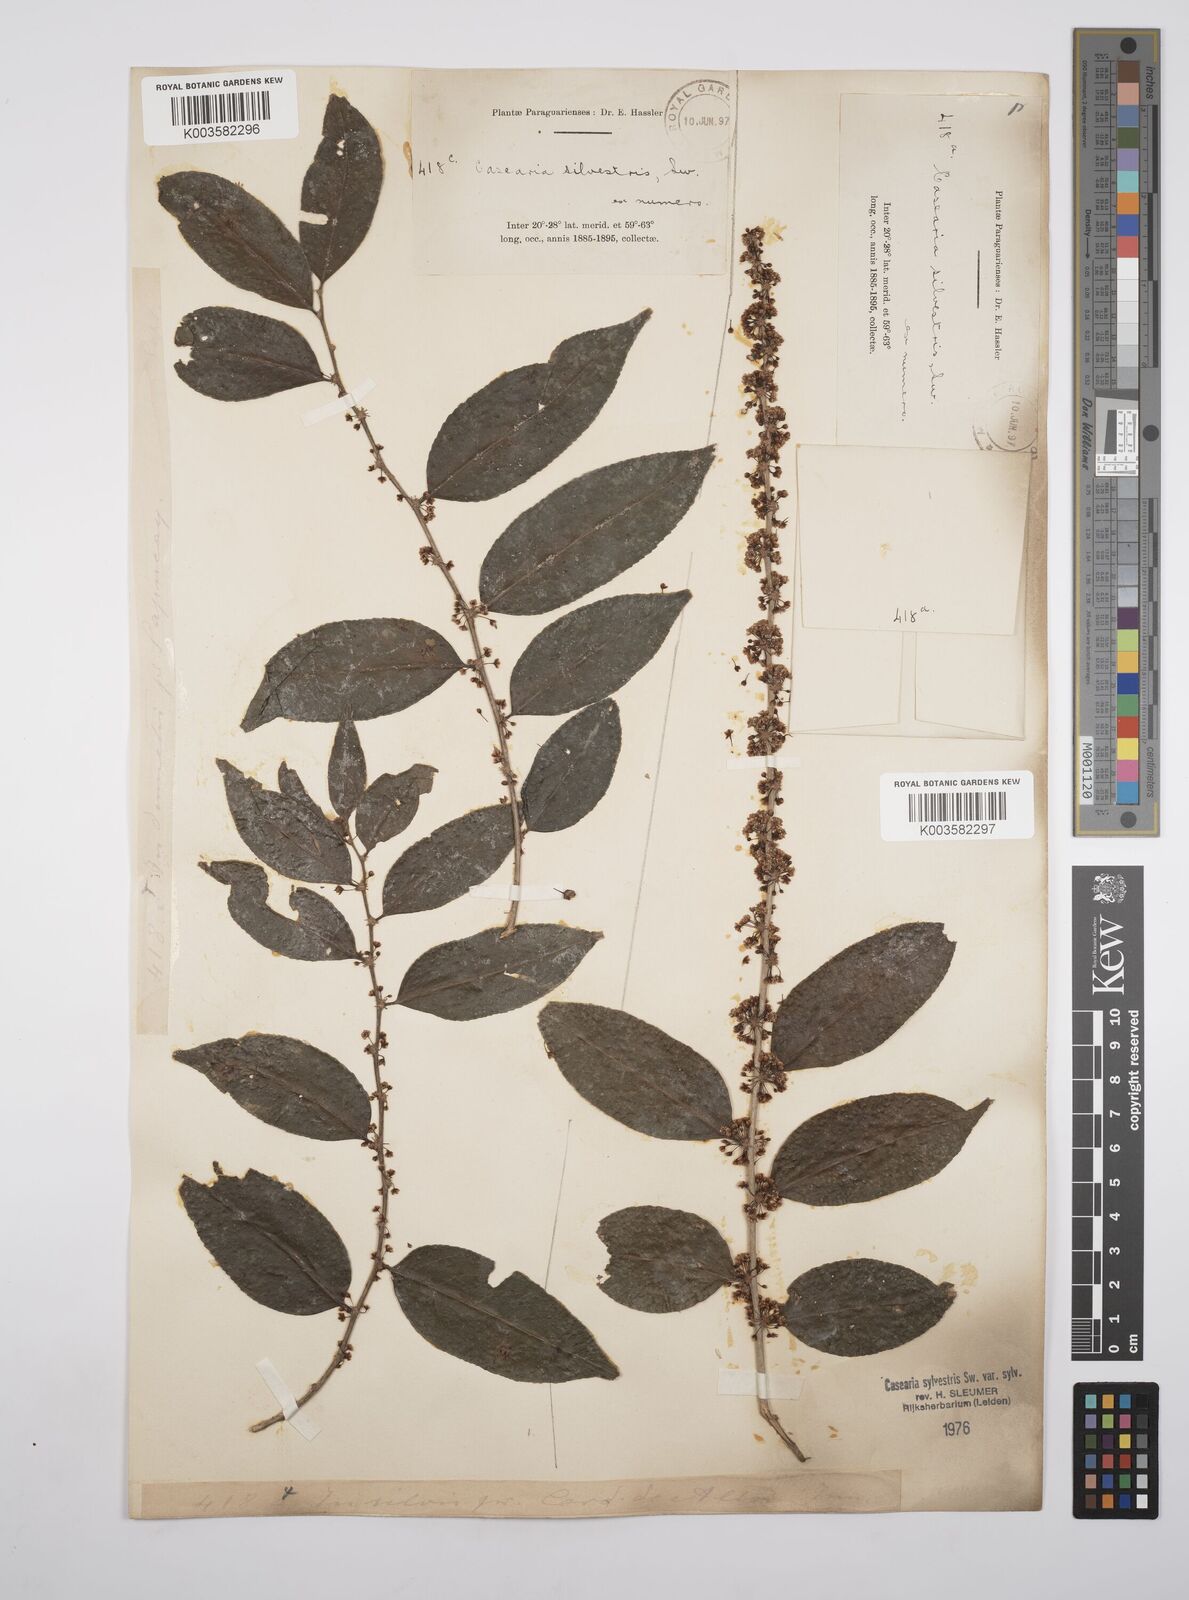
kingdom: Plantae
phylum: Tracheophyta
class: Magnoliopsida
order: Malpighiales
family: Salicaceae
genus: Casearia
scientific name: Casearia sylvestris
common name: Wild sage
